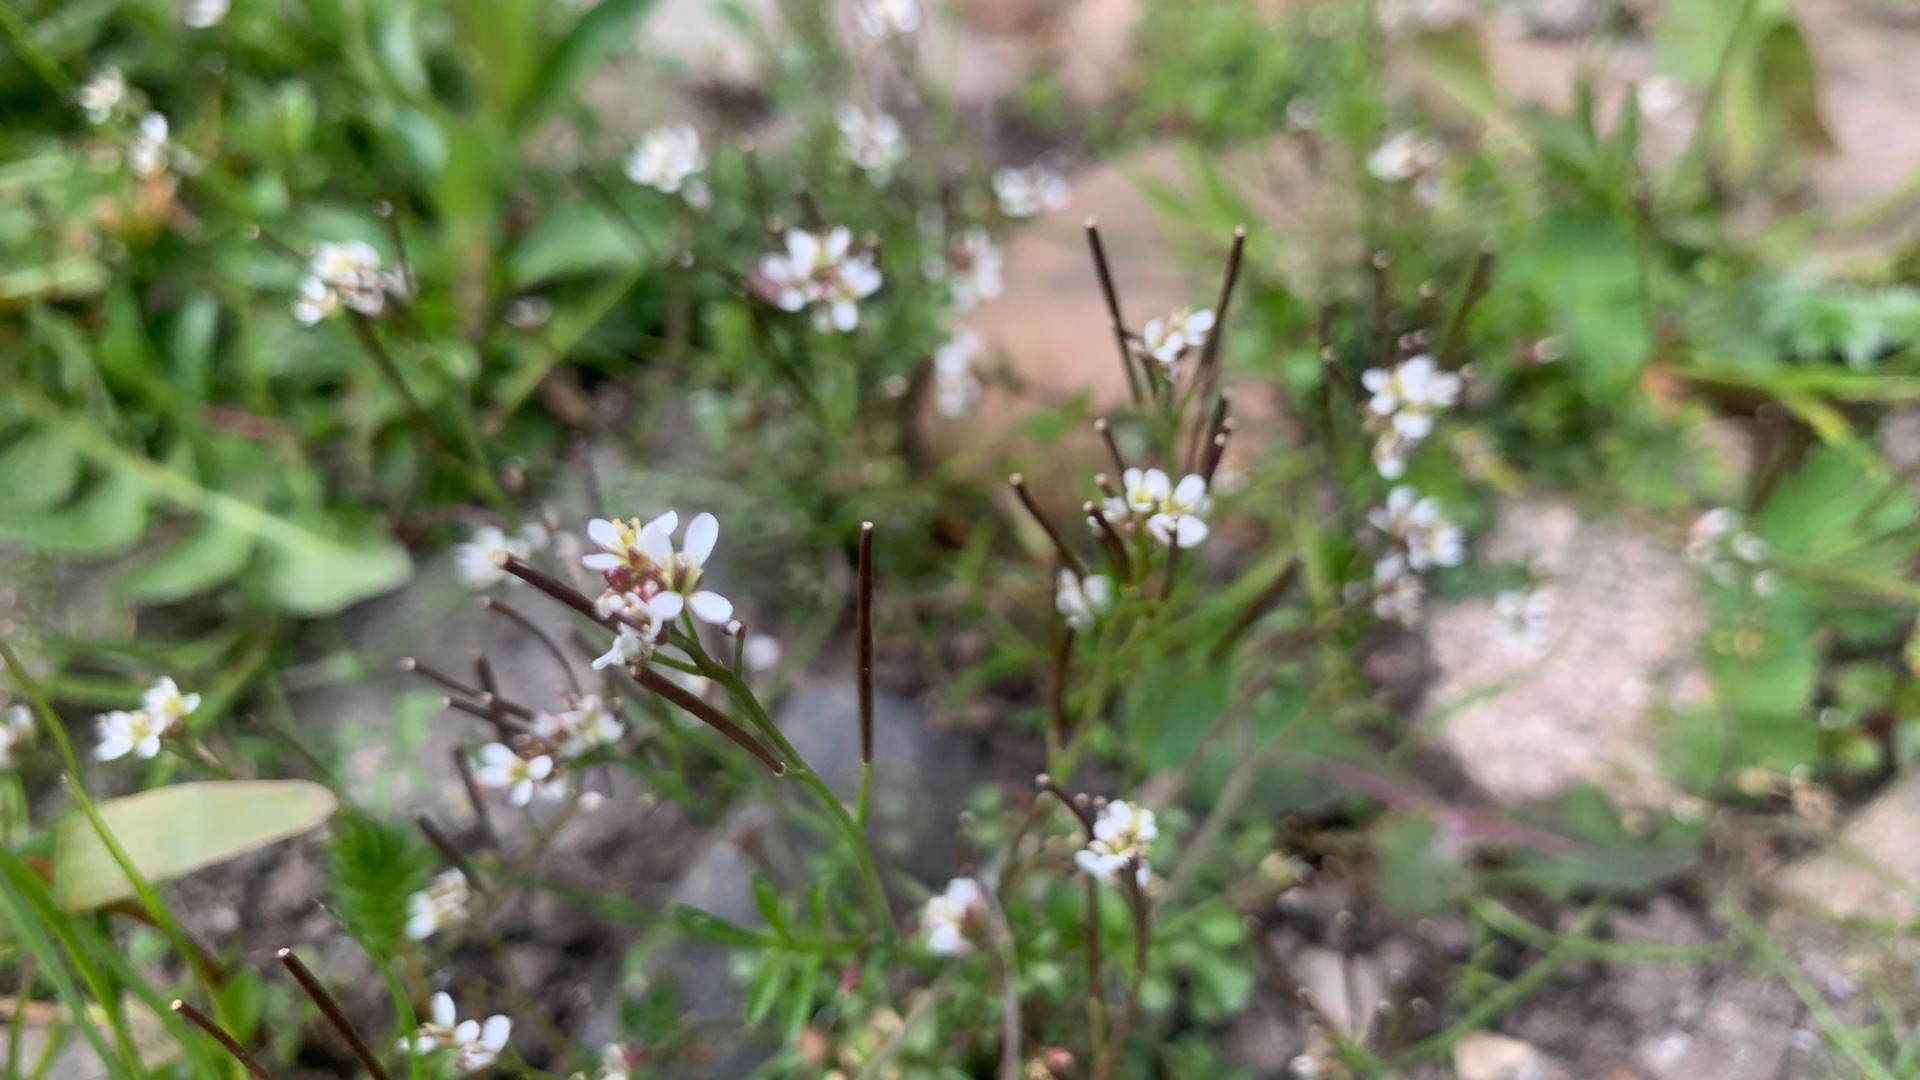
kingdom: Plantae
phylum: Tracheophyta
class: Magnoliopsida
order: Brassicales
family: Brassicaceae
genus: Cardamine
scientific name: Cardamine hirsuta
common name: Roset-springklap
